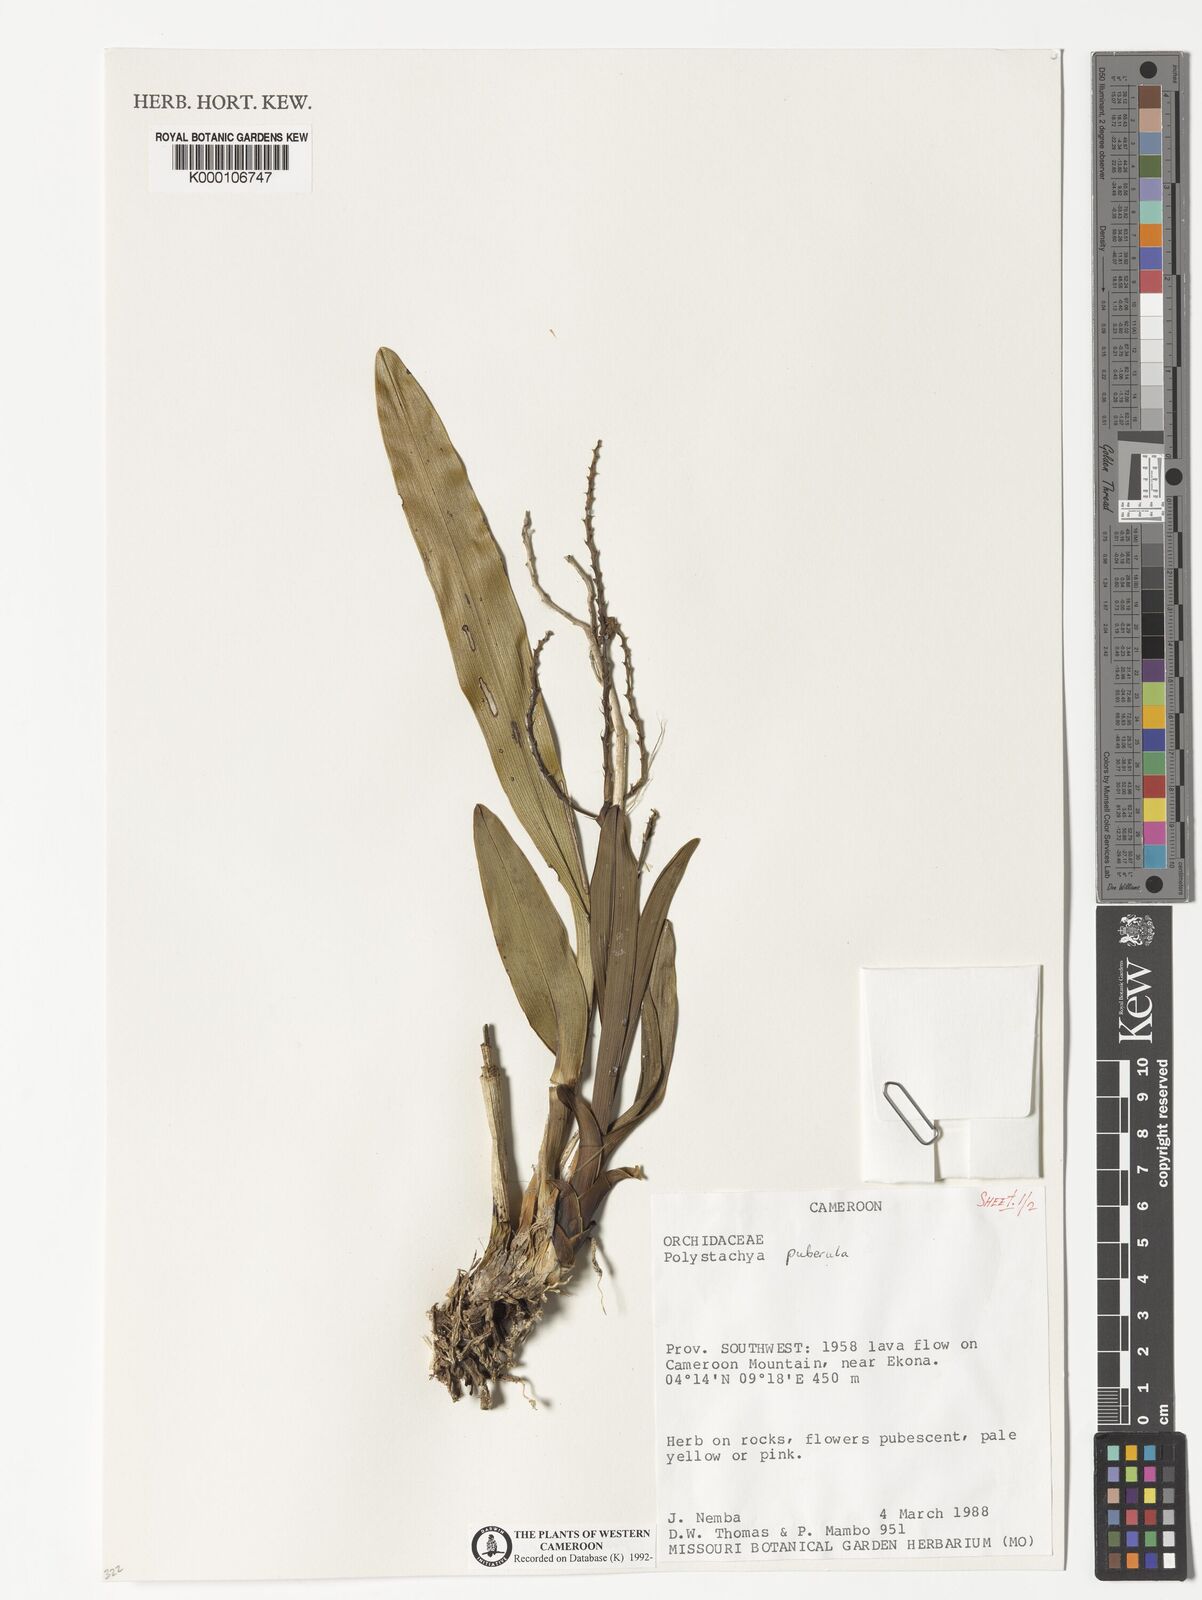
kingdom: Plantae
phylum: Tracheophyta
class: Liliopsida
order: Asparagales
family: Orchidaceae
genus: Polystachya
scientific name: Polystachya puberula
